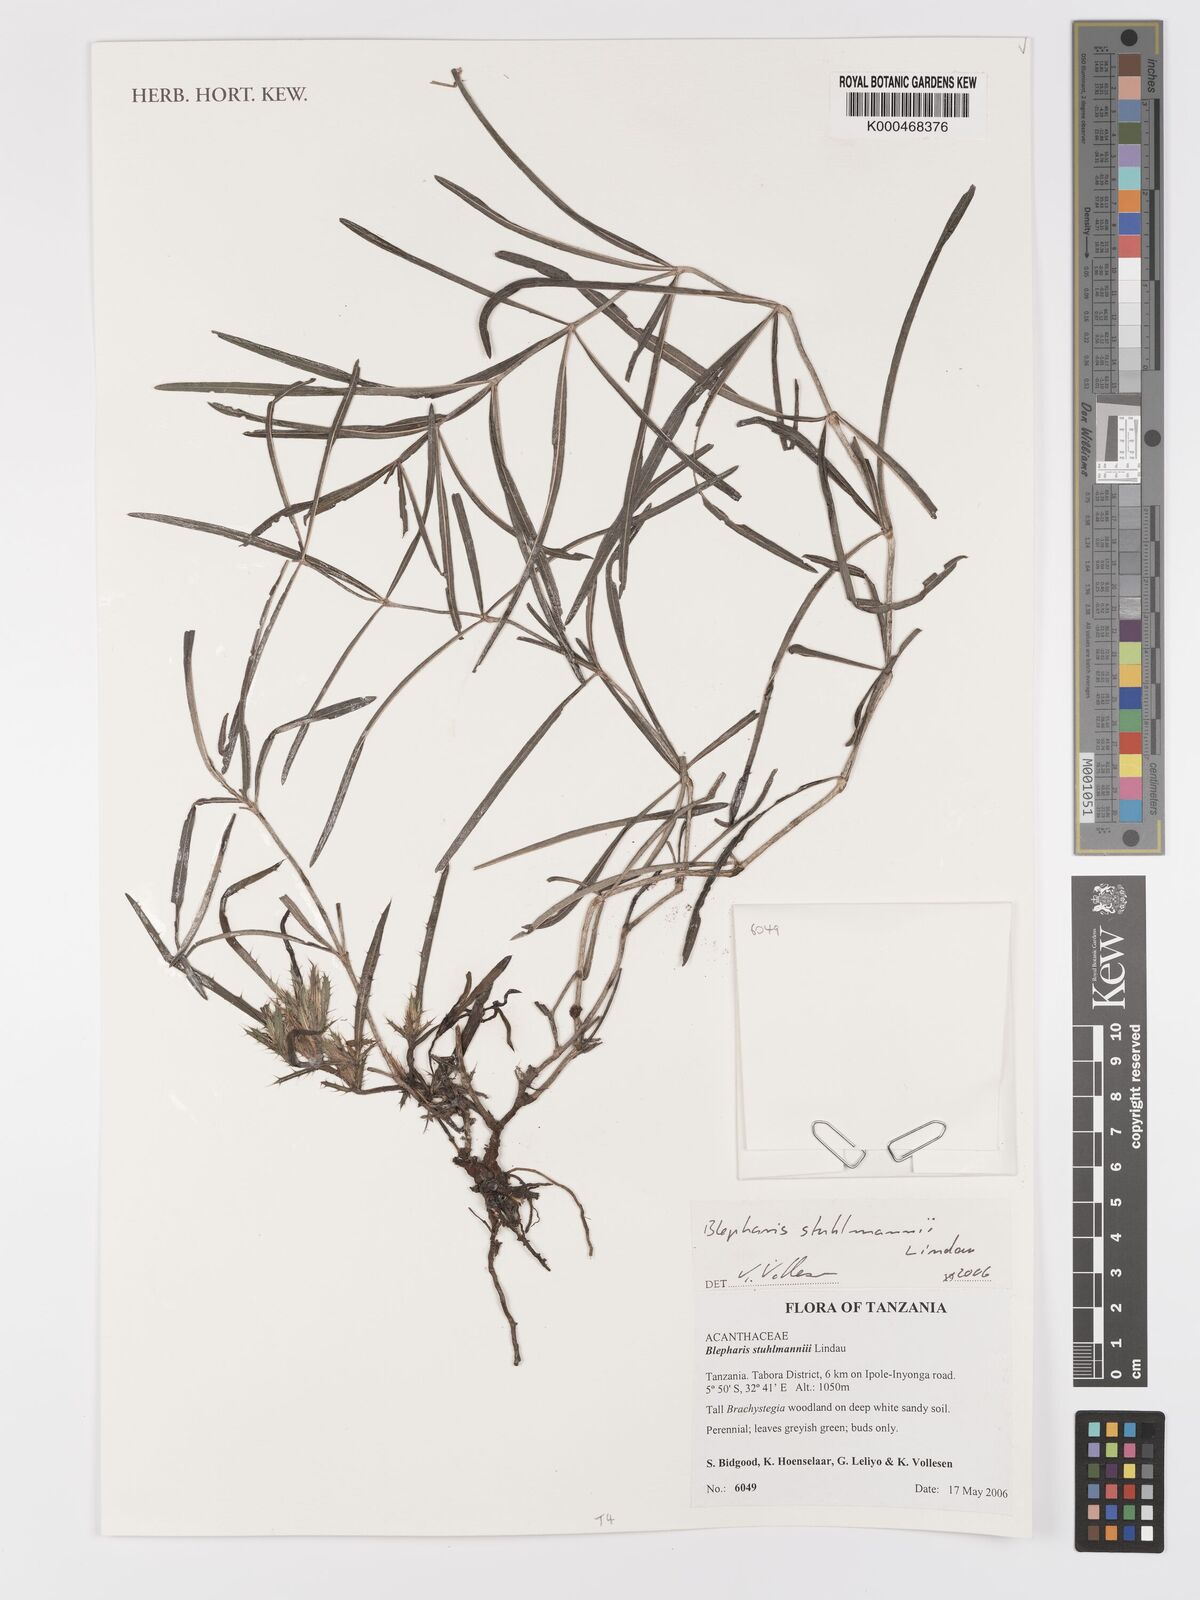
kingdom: Plantae
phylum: Tracheophyta
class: Magnoliopsida
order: Lamiales
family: Acanthaceae
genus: Blepharis
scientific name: Blepharis stuhlmannii
